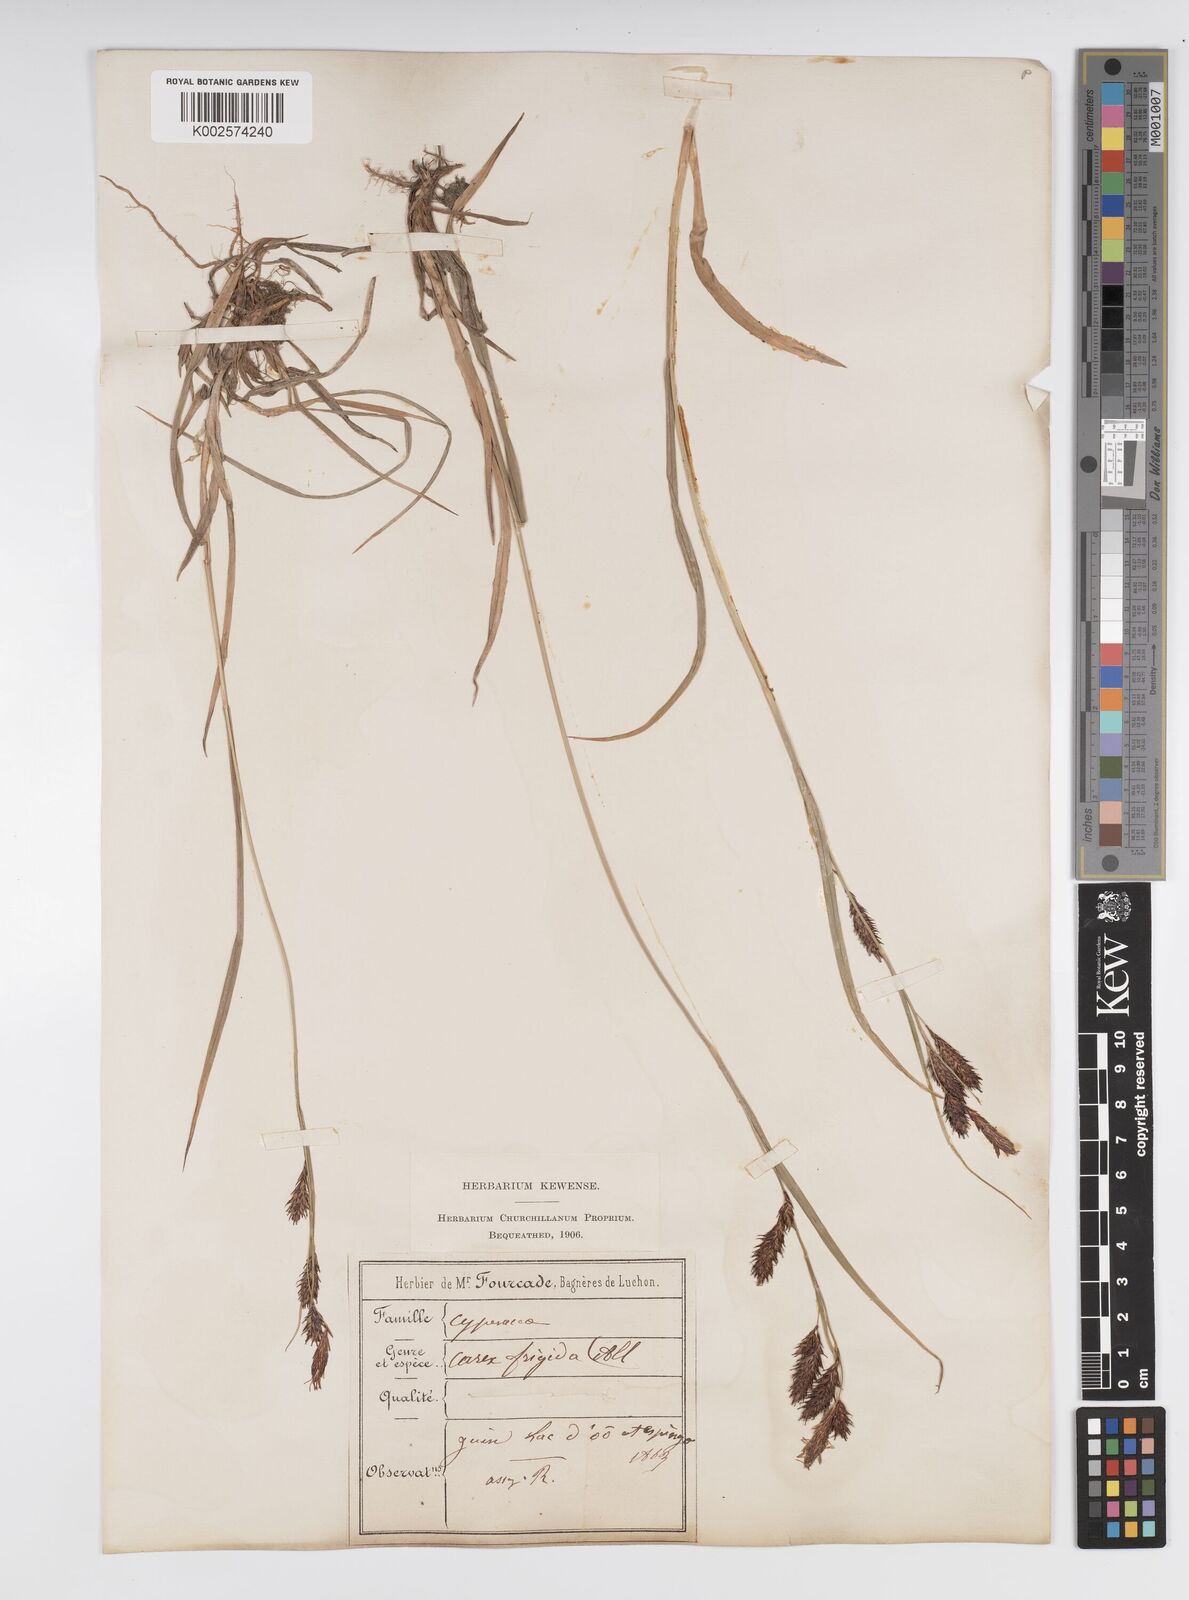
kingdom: Plantae
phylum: Tracheophyta
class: Liliopsida
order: Poales
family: Cyperaceae
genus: Carex
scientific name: Carex frigida
